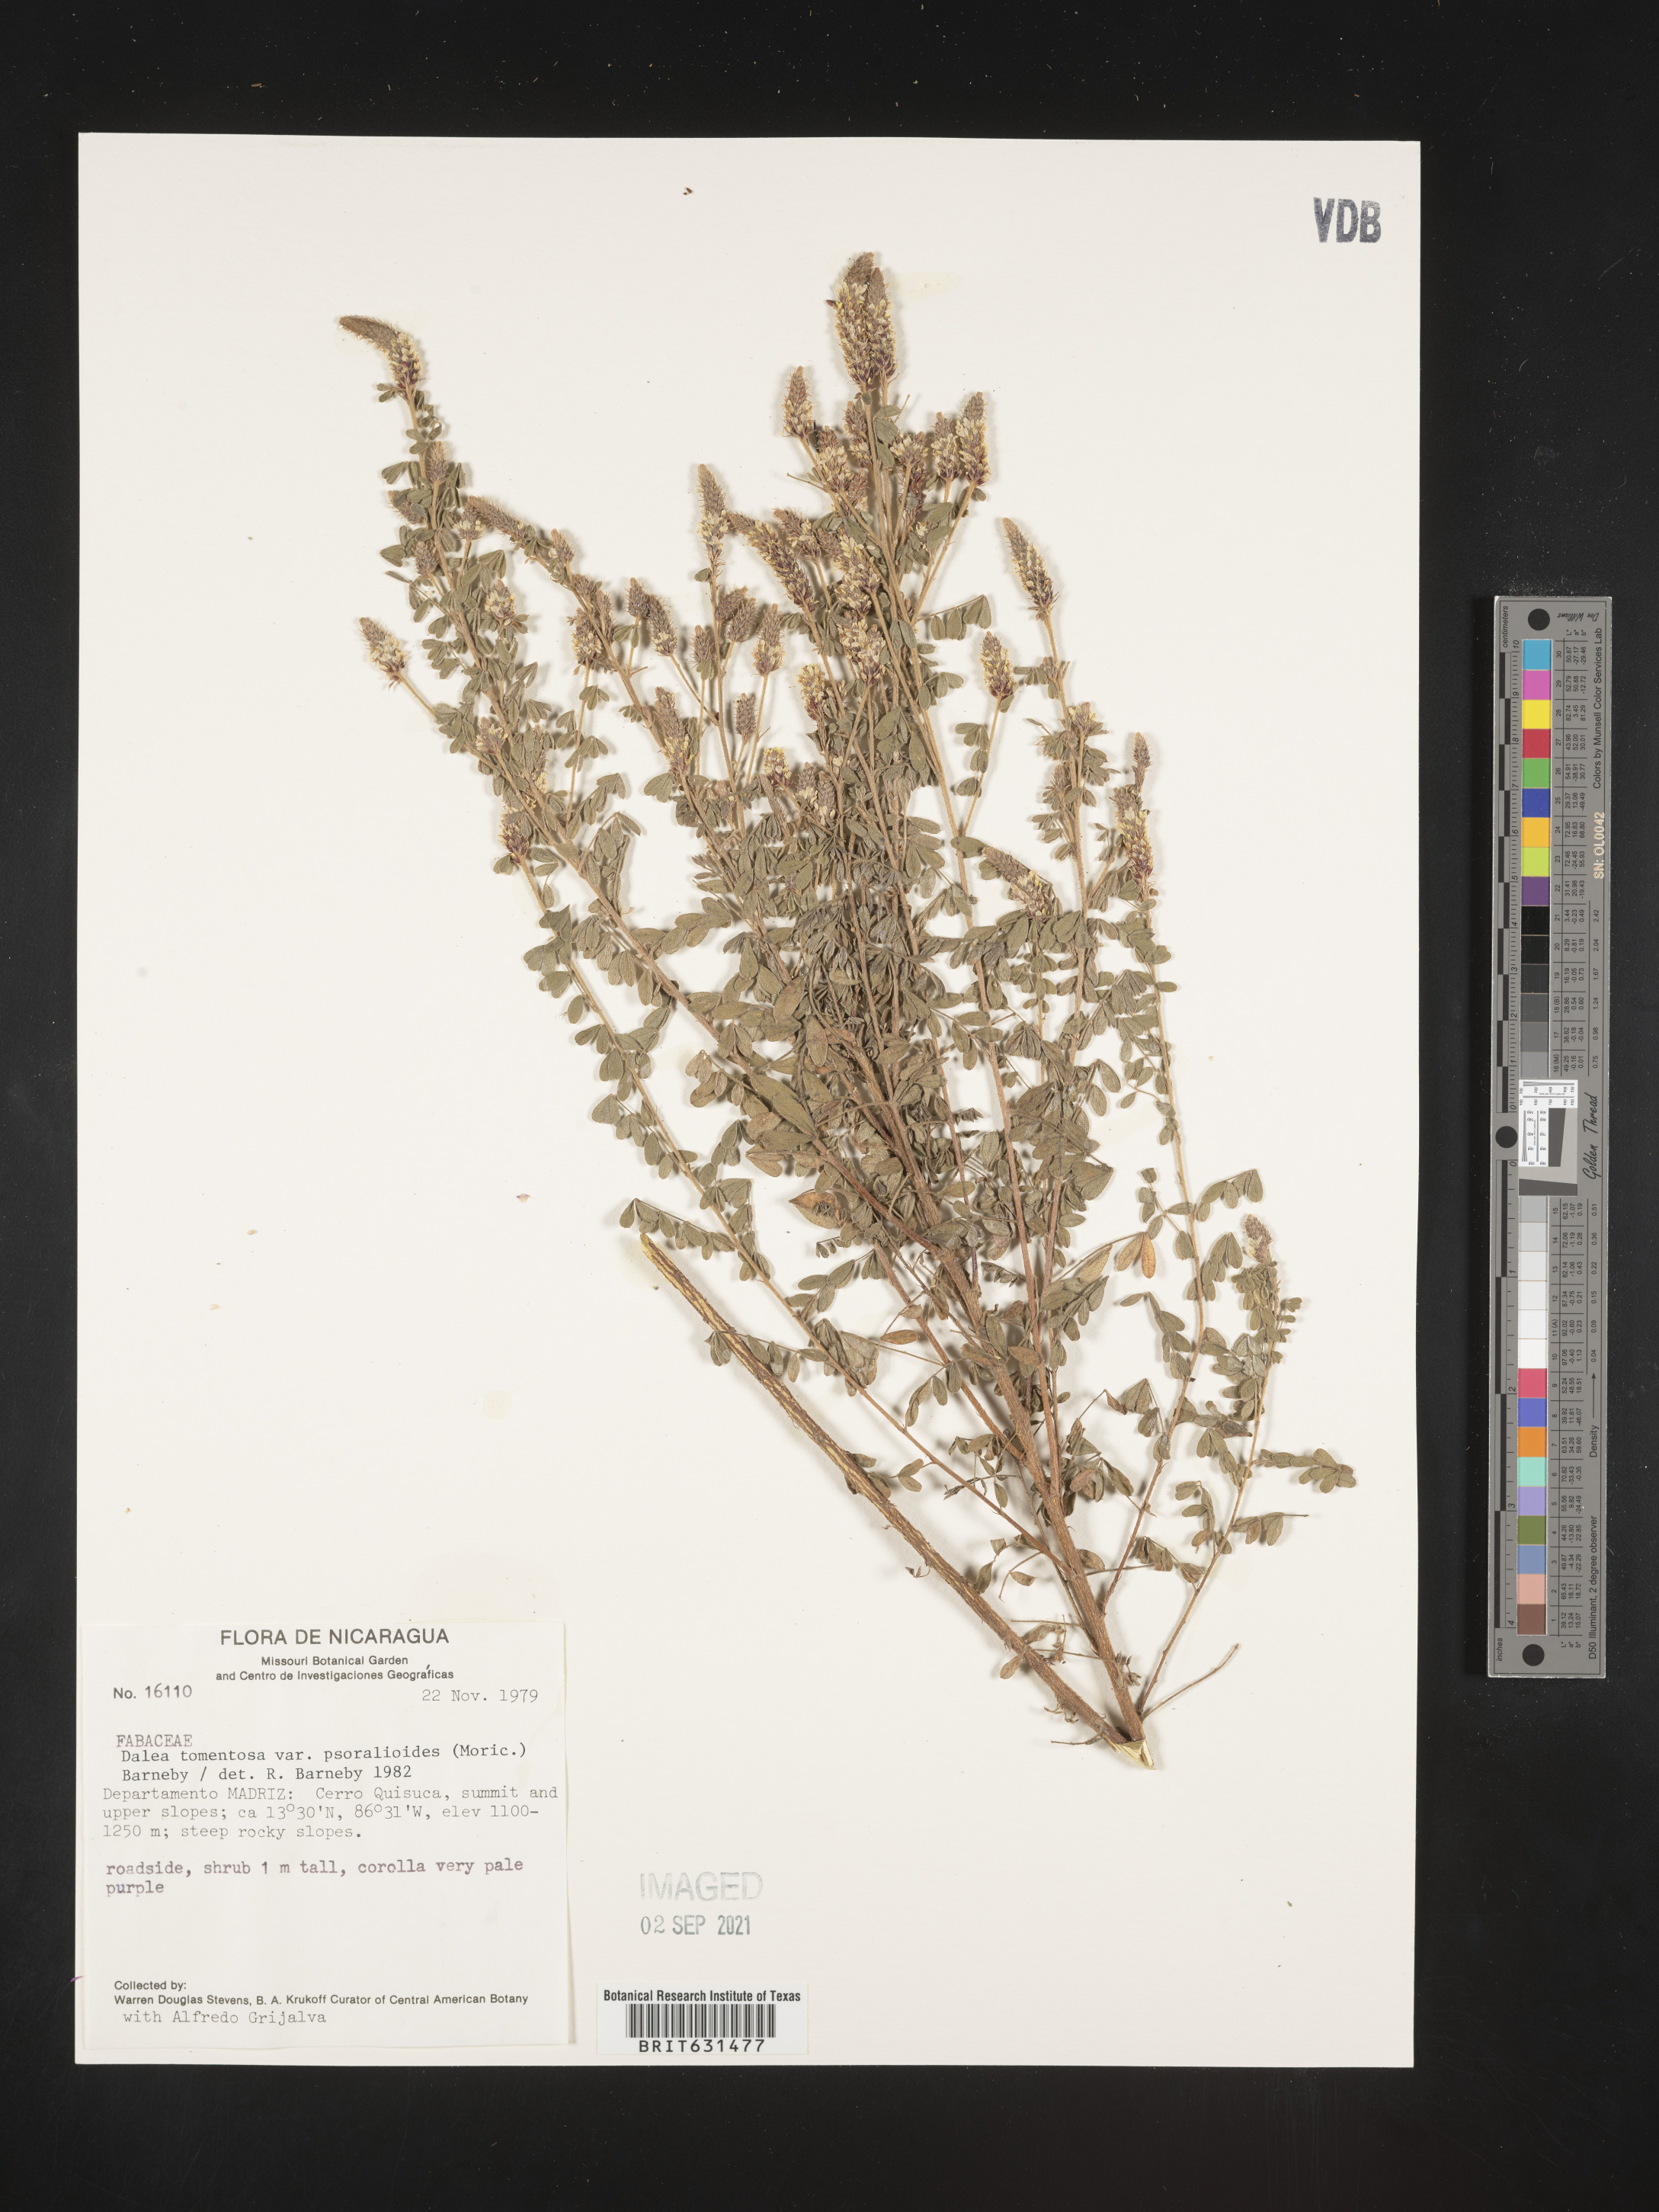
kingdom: Plantae
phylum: Tracheophyta
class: Magnoliopsida
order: Fabales
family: Fabaceae
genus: Dalea
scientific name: Dalea tomentosa
